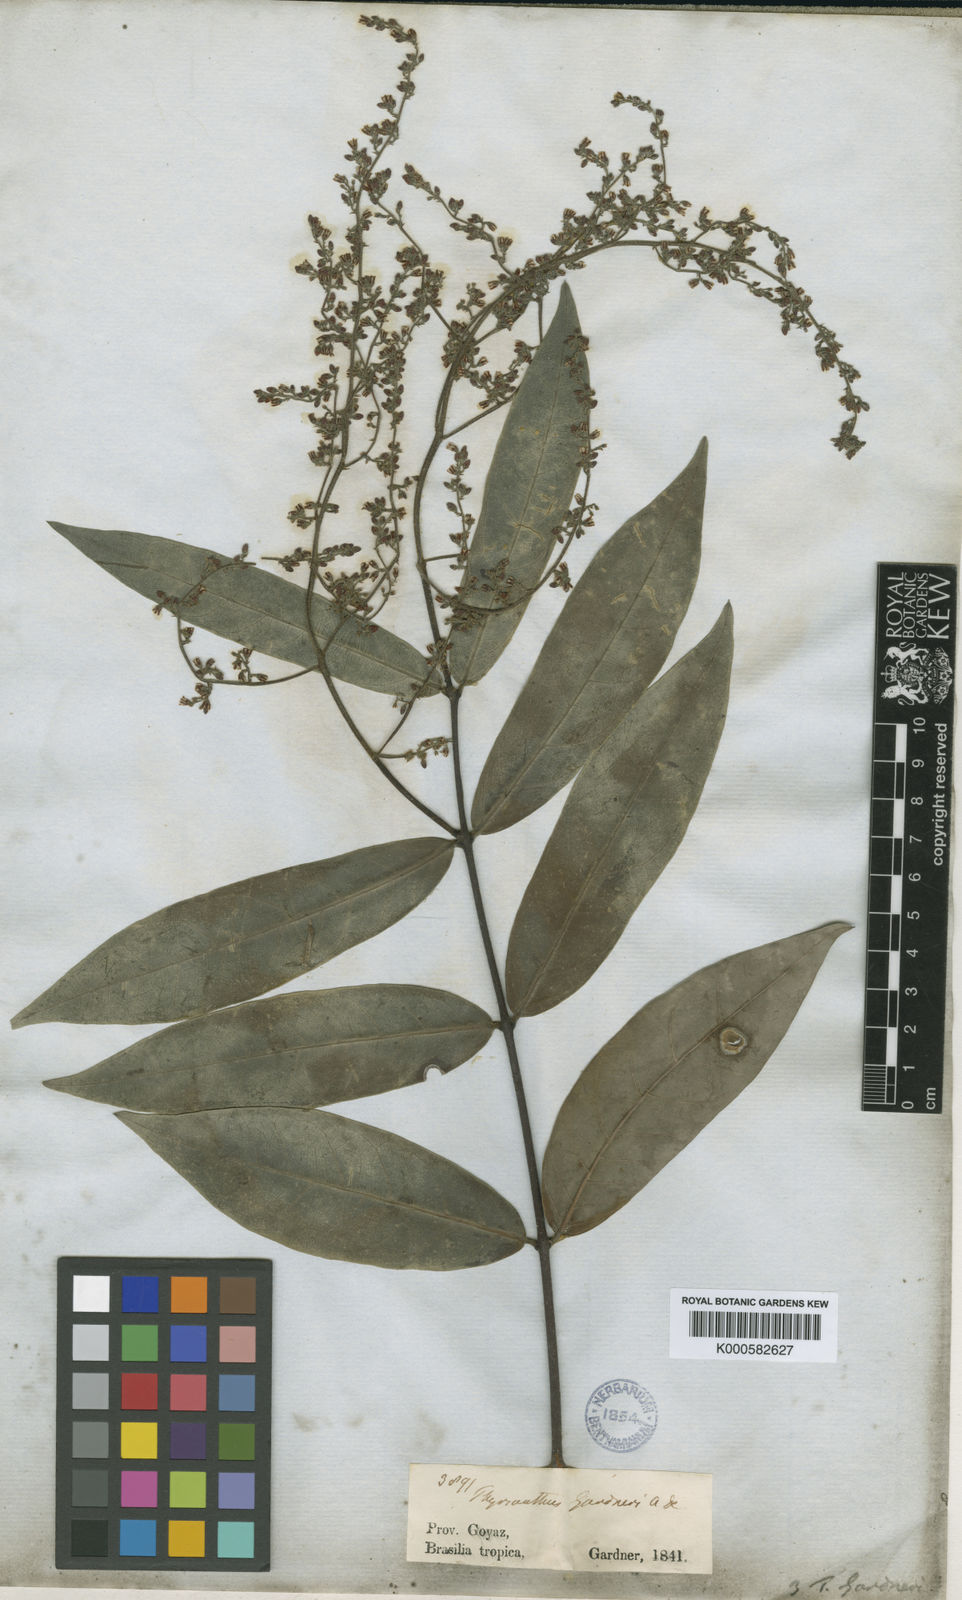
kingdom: Plantae
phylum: Tracheophyta
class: Magnoliopsida
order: Gentianales
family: Apocynaceae
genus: Forsteronia
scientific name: Forsteronia
